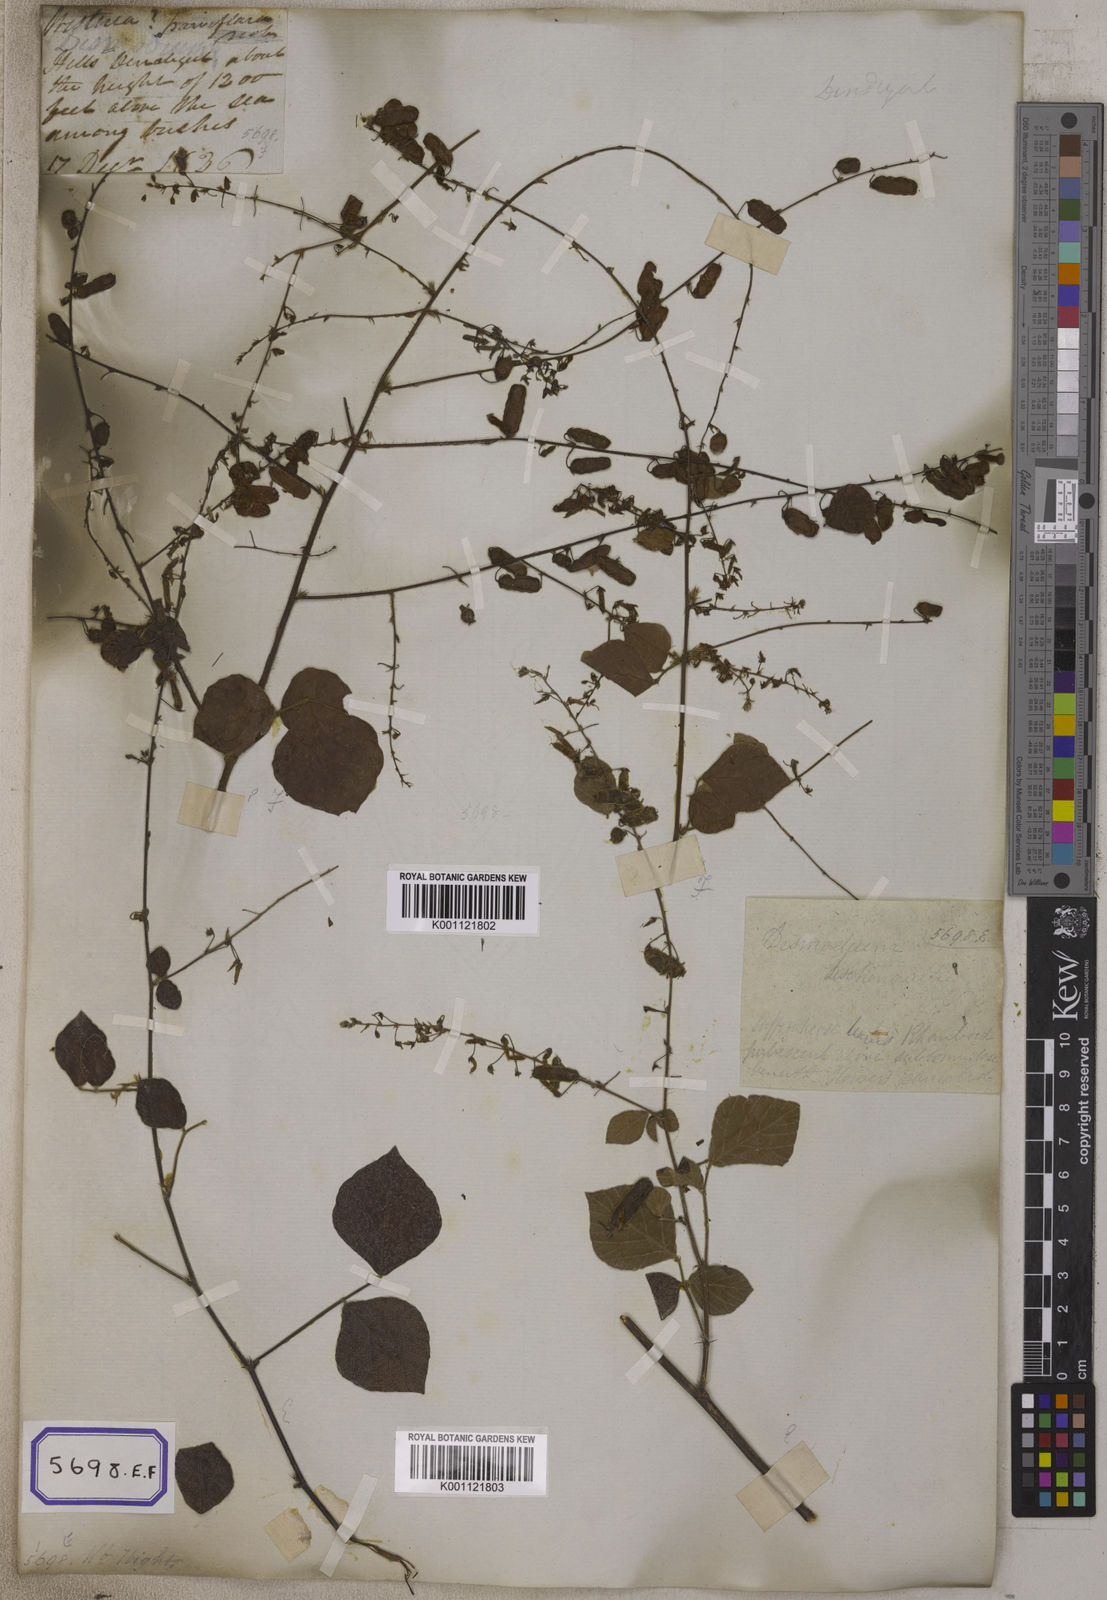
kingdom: Plantae
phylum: Tracheophyta
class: Magnoliopsida
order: Fabales
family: Fabaceae
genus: Pseudarthria
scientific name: Pseudarthria viscida
